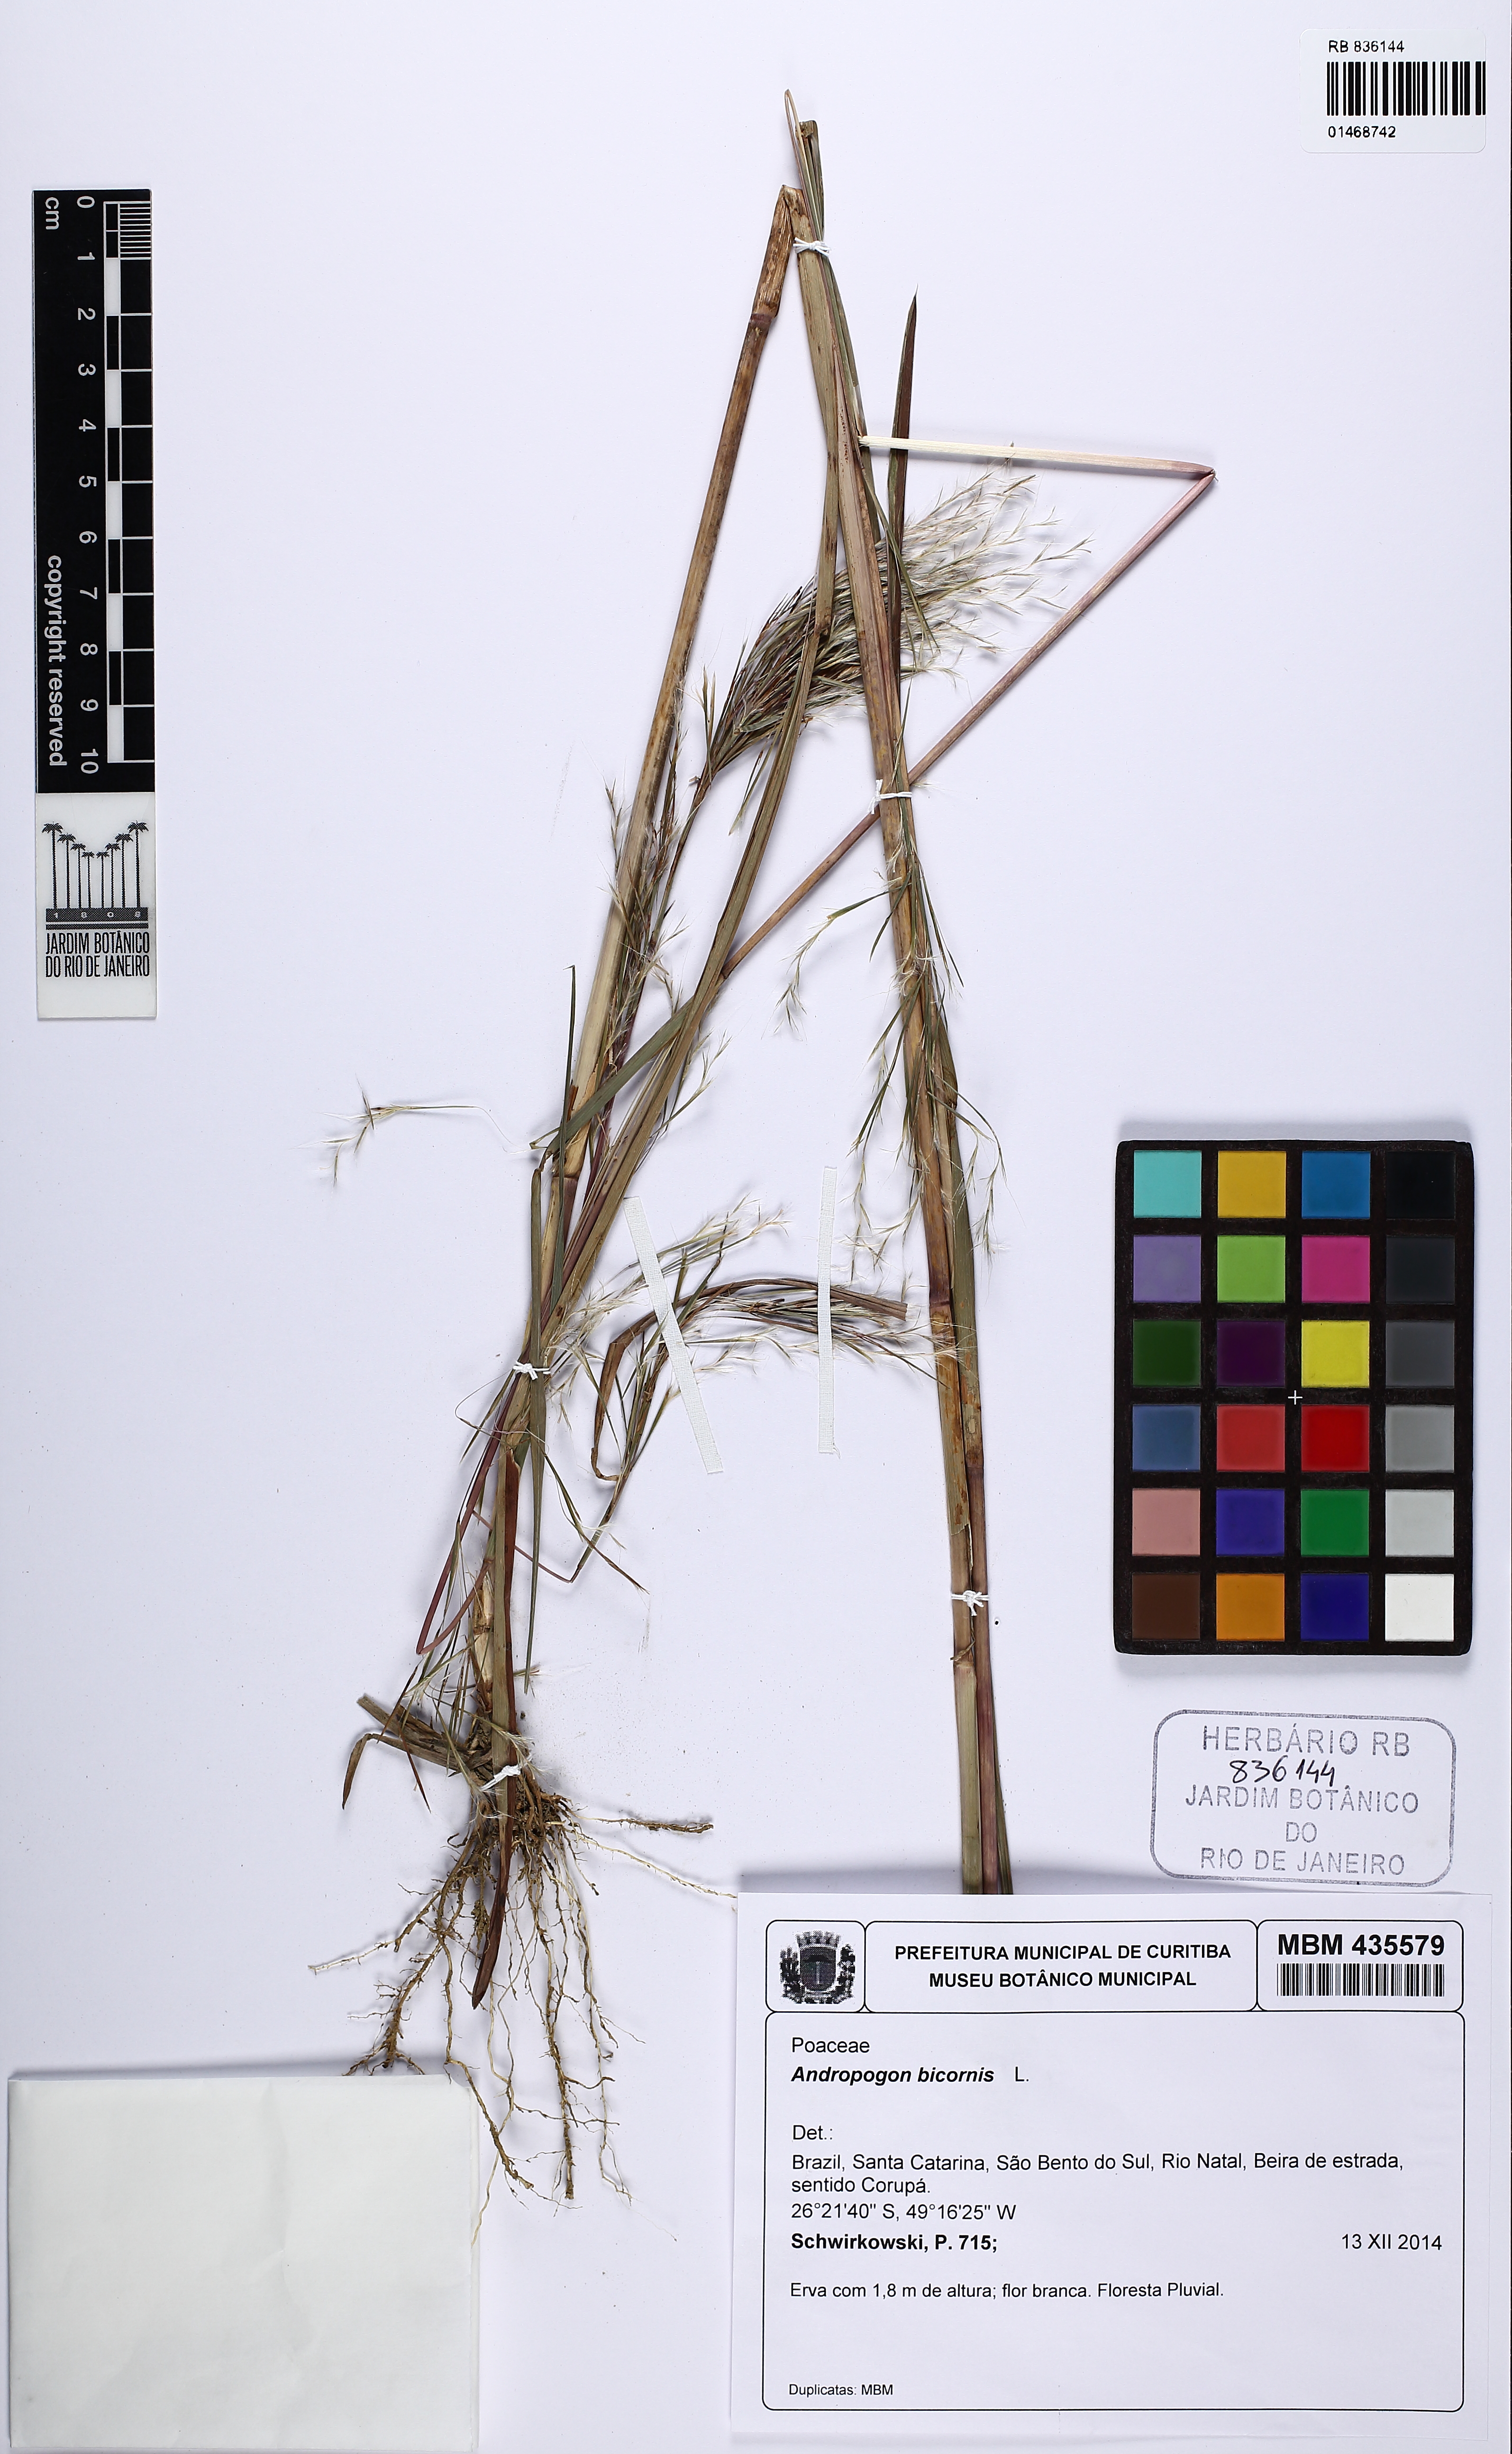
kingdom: Plantae
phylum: Tracheophyta
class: Liliopsida
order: Poales
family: Poaceae
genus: Andropogon
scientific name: Andropogon bicornis
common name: West indian foxtail grass
